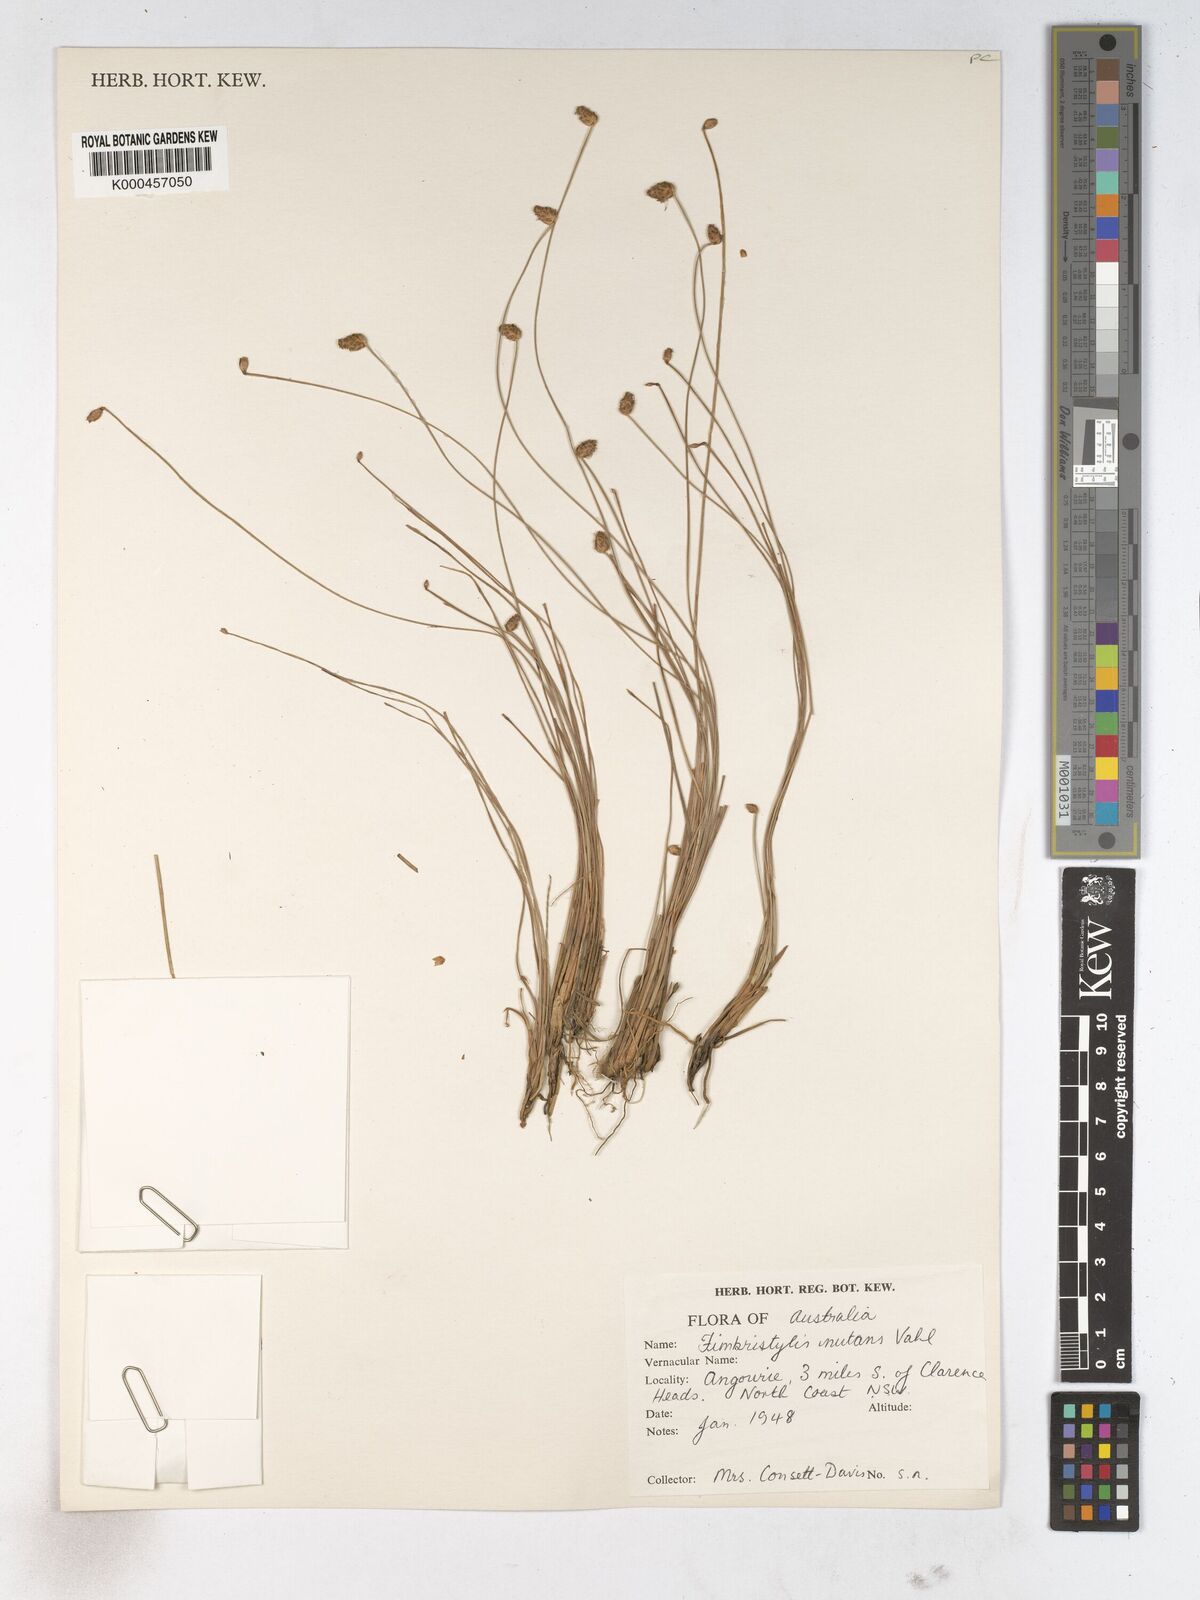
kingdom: Plantae
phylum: Tracheophyta
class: Liliopsida
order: Poales
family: Cyperaceae
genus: Fimbristylis
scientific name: Fimbristylis nutans
